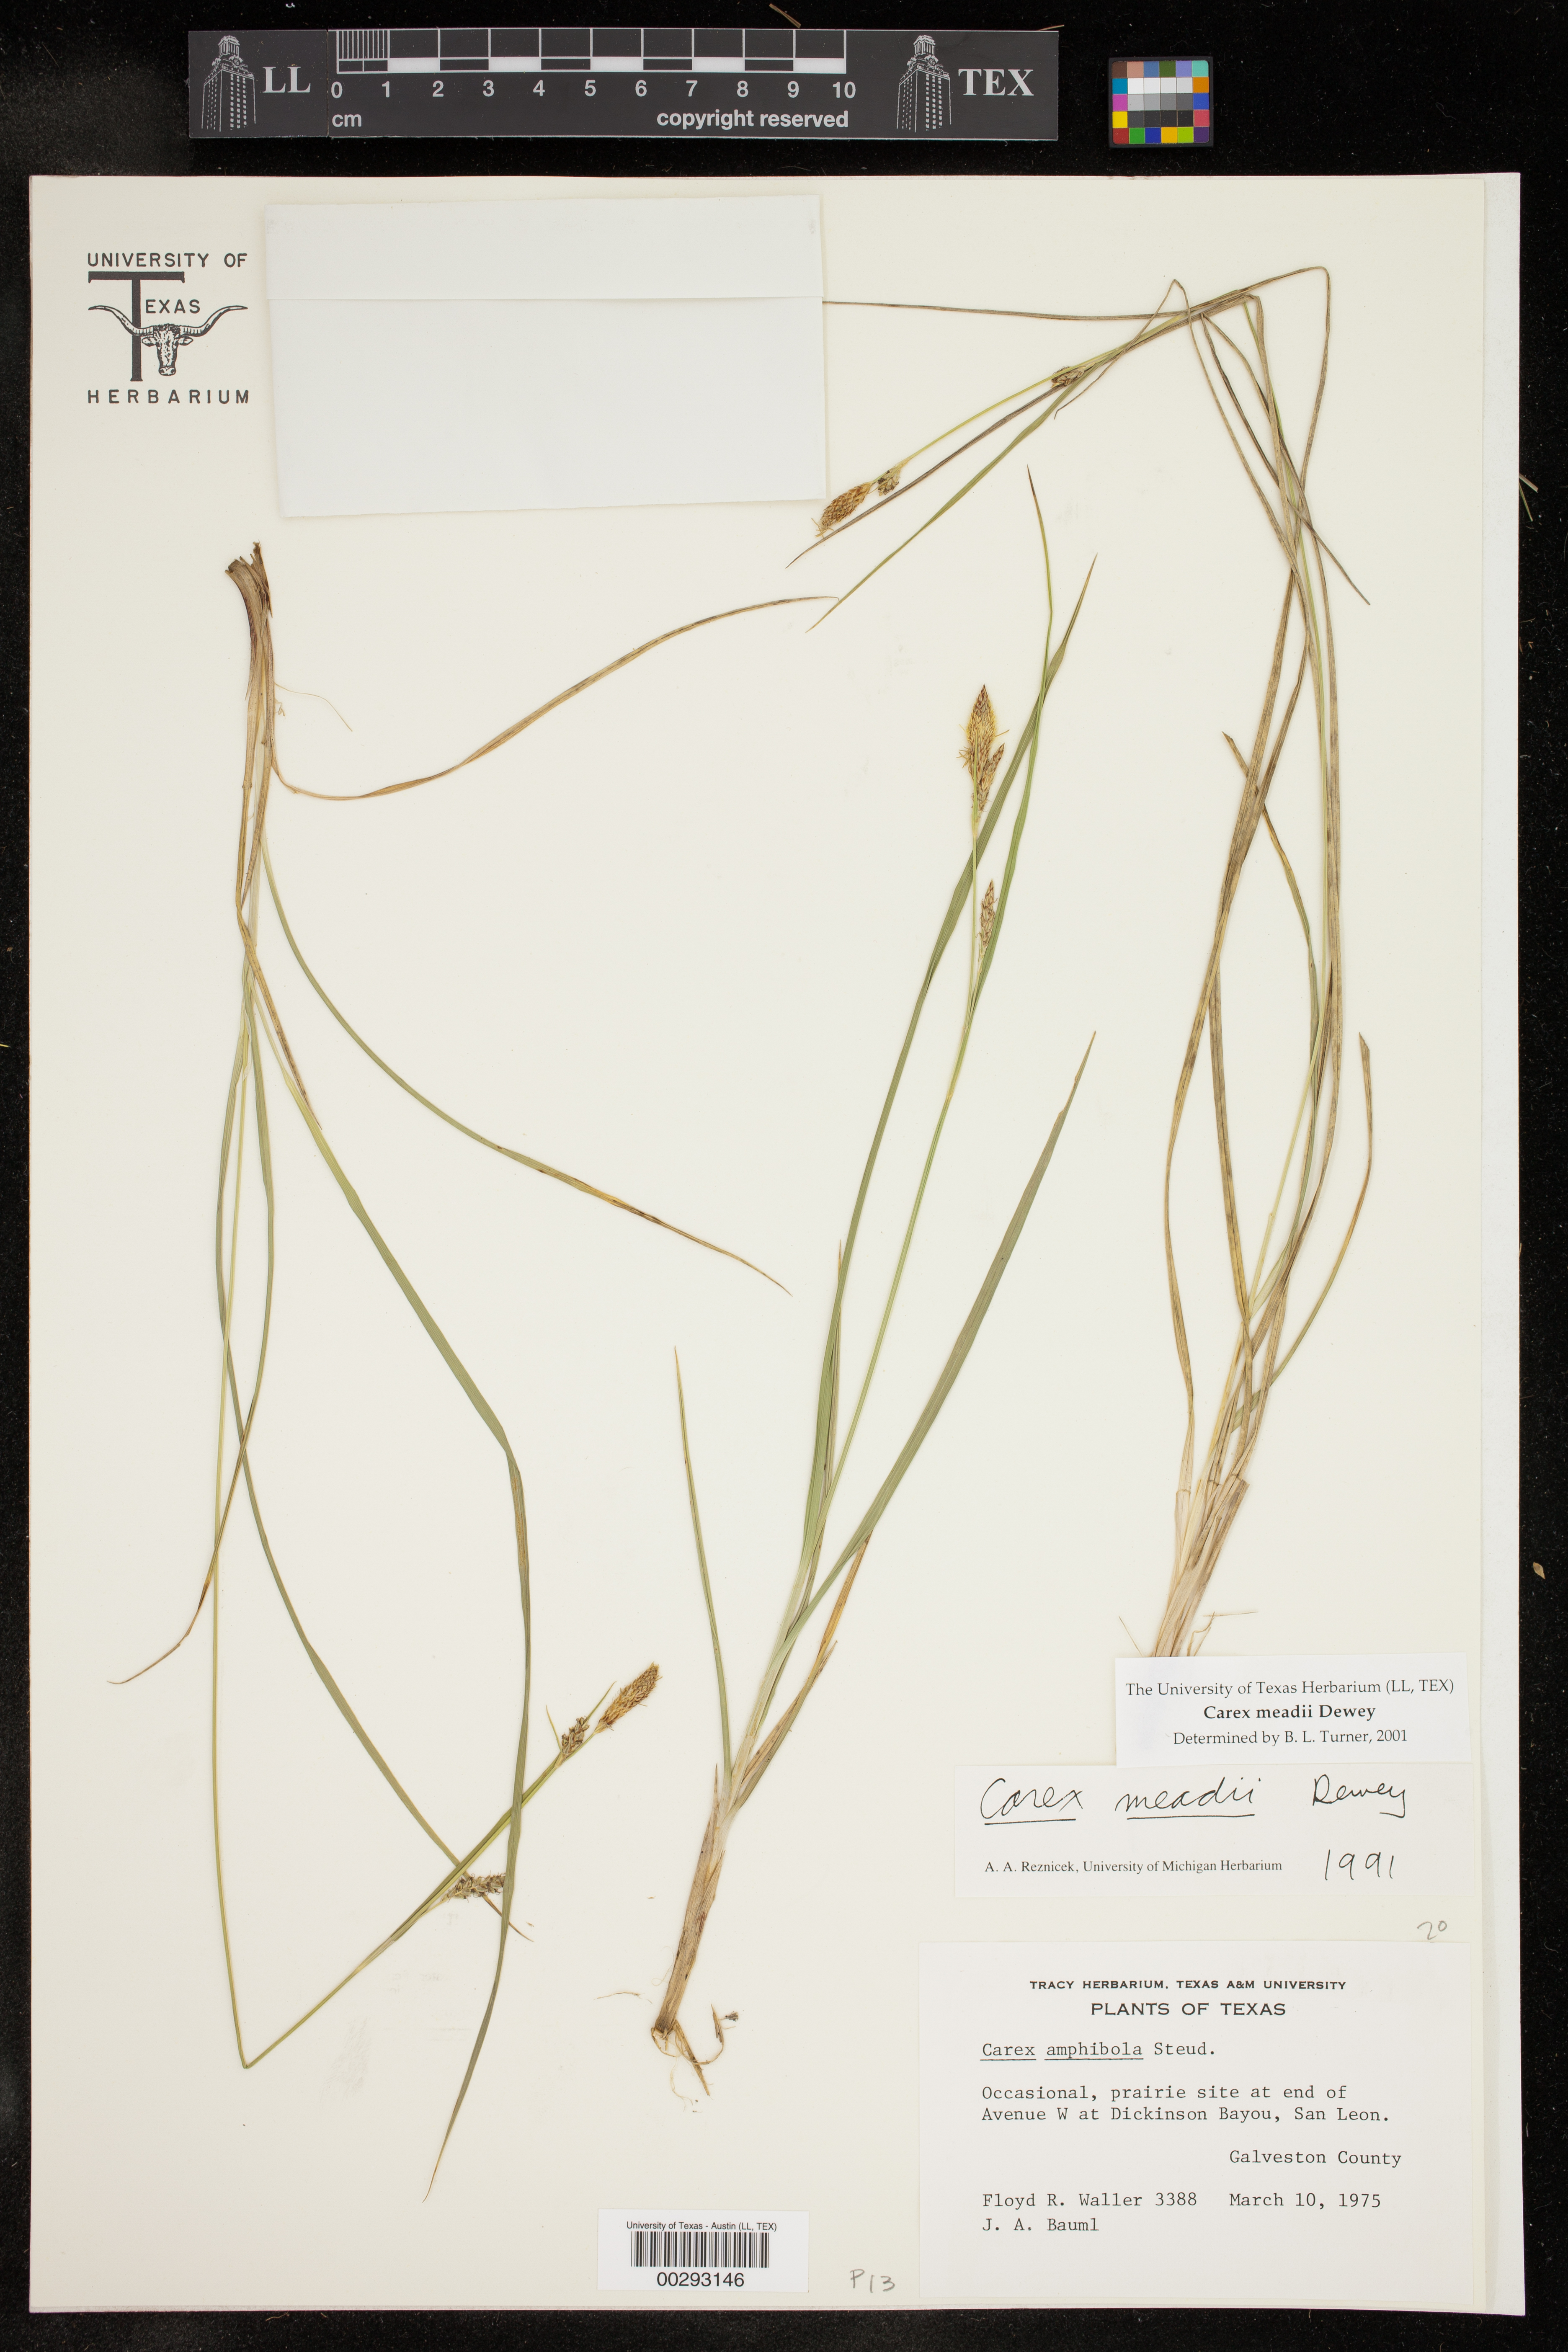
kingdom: Plantae
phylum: Tracheophyta
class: Liliopsida
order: Poales
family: Cyperaceae
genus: Carex
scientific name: Carex meadii
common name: Mead's sedge
